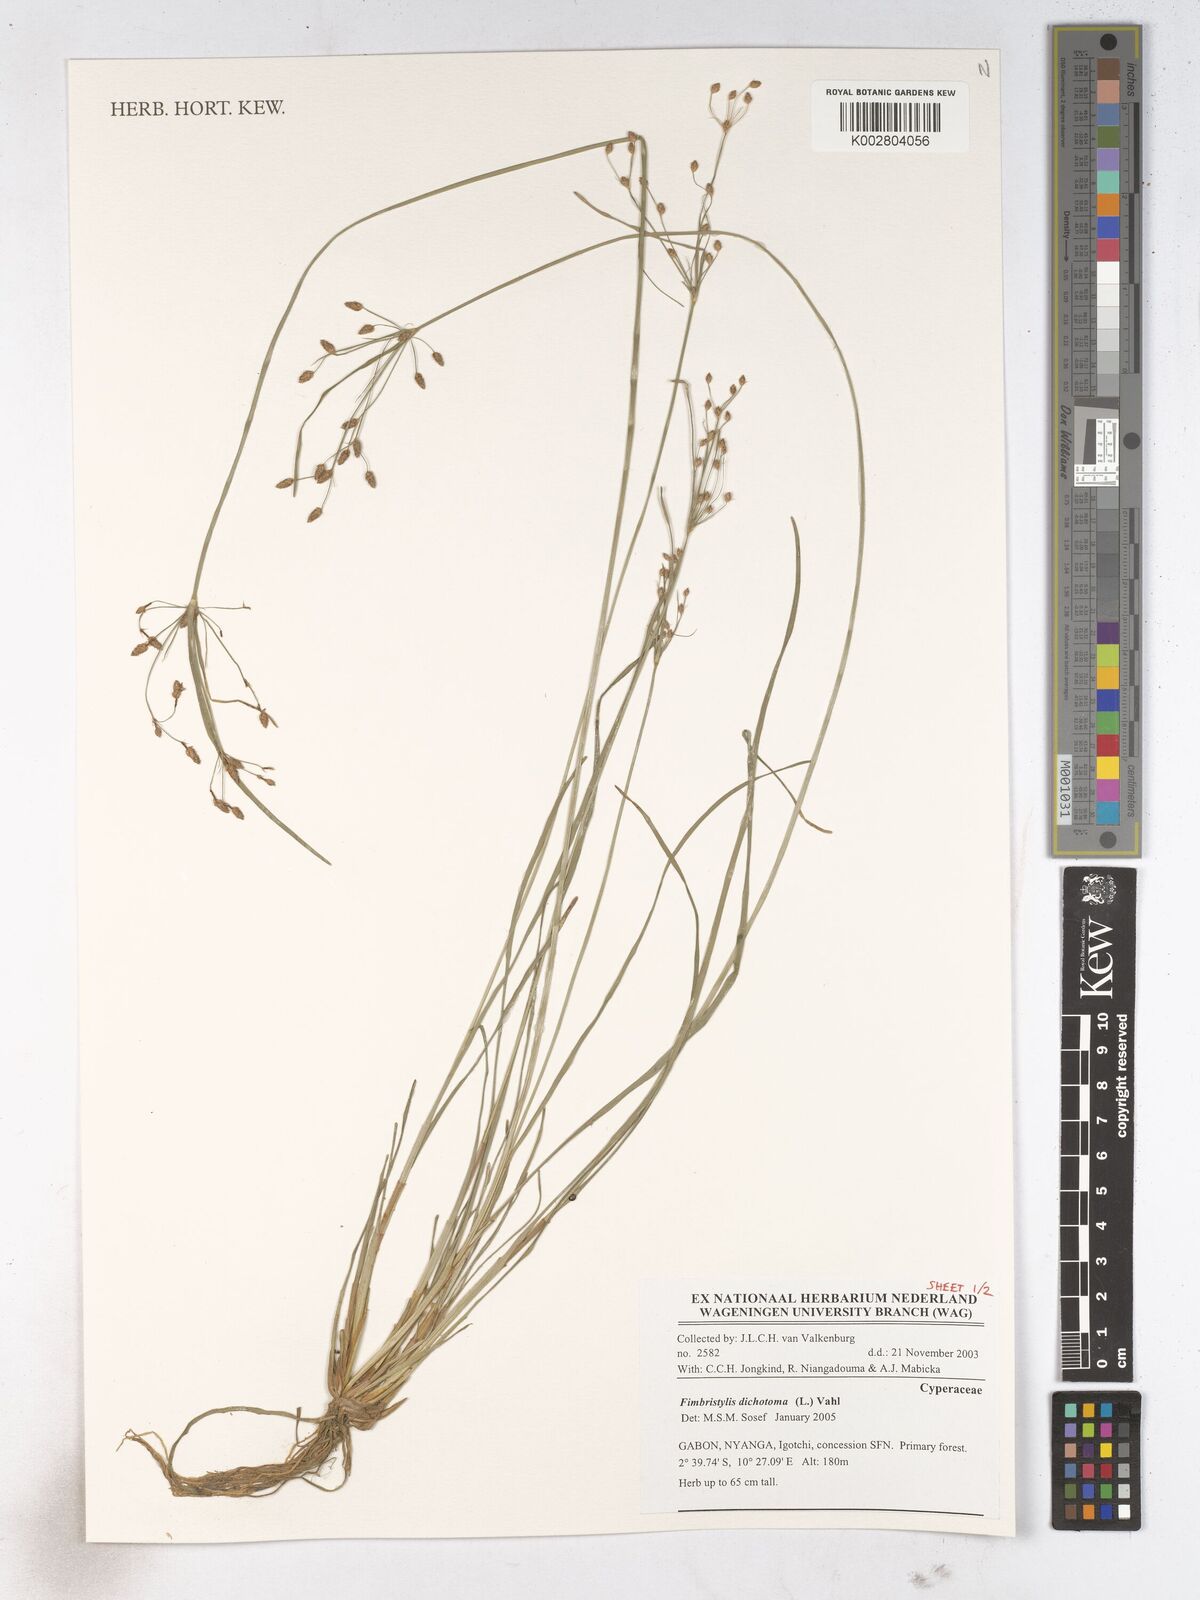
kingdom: Plantae
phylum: Tracheophyta
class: Liliopsida
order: Poales
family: Cyperaceae
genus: Fimbristylis
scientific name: Fimbristylis dichotoma
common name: Forked fimbry
